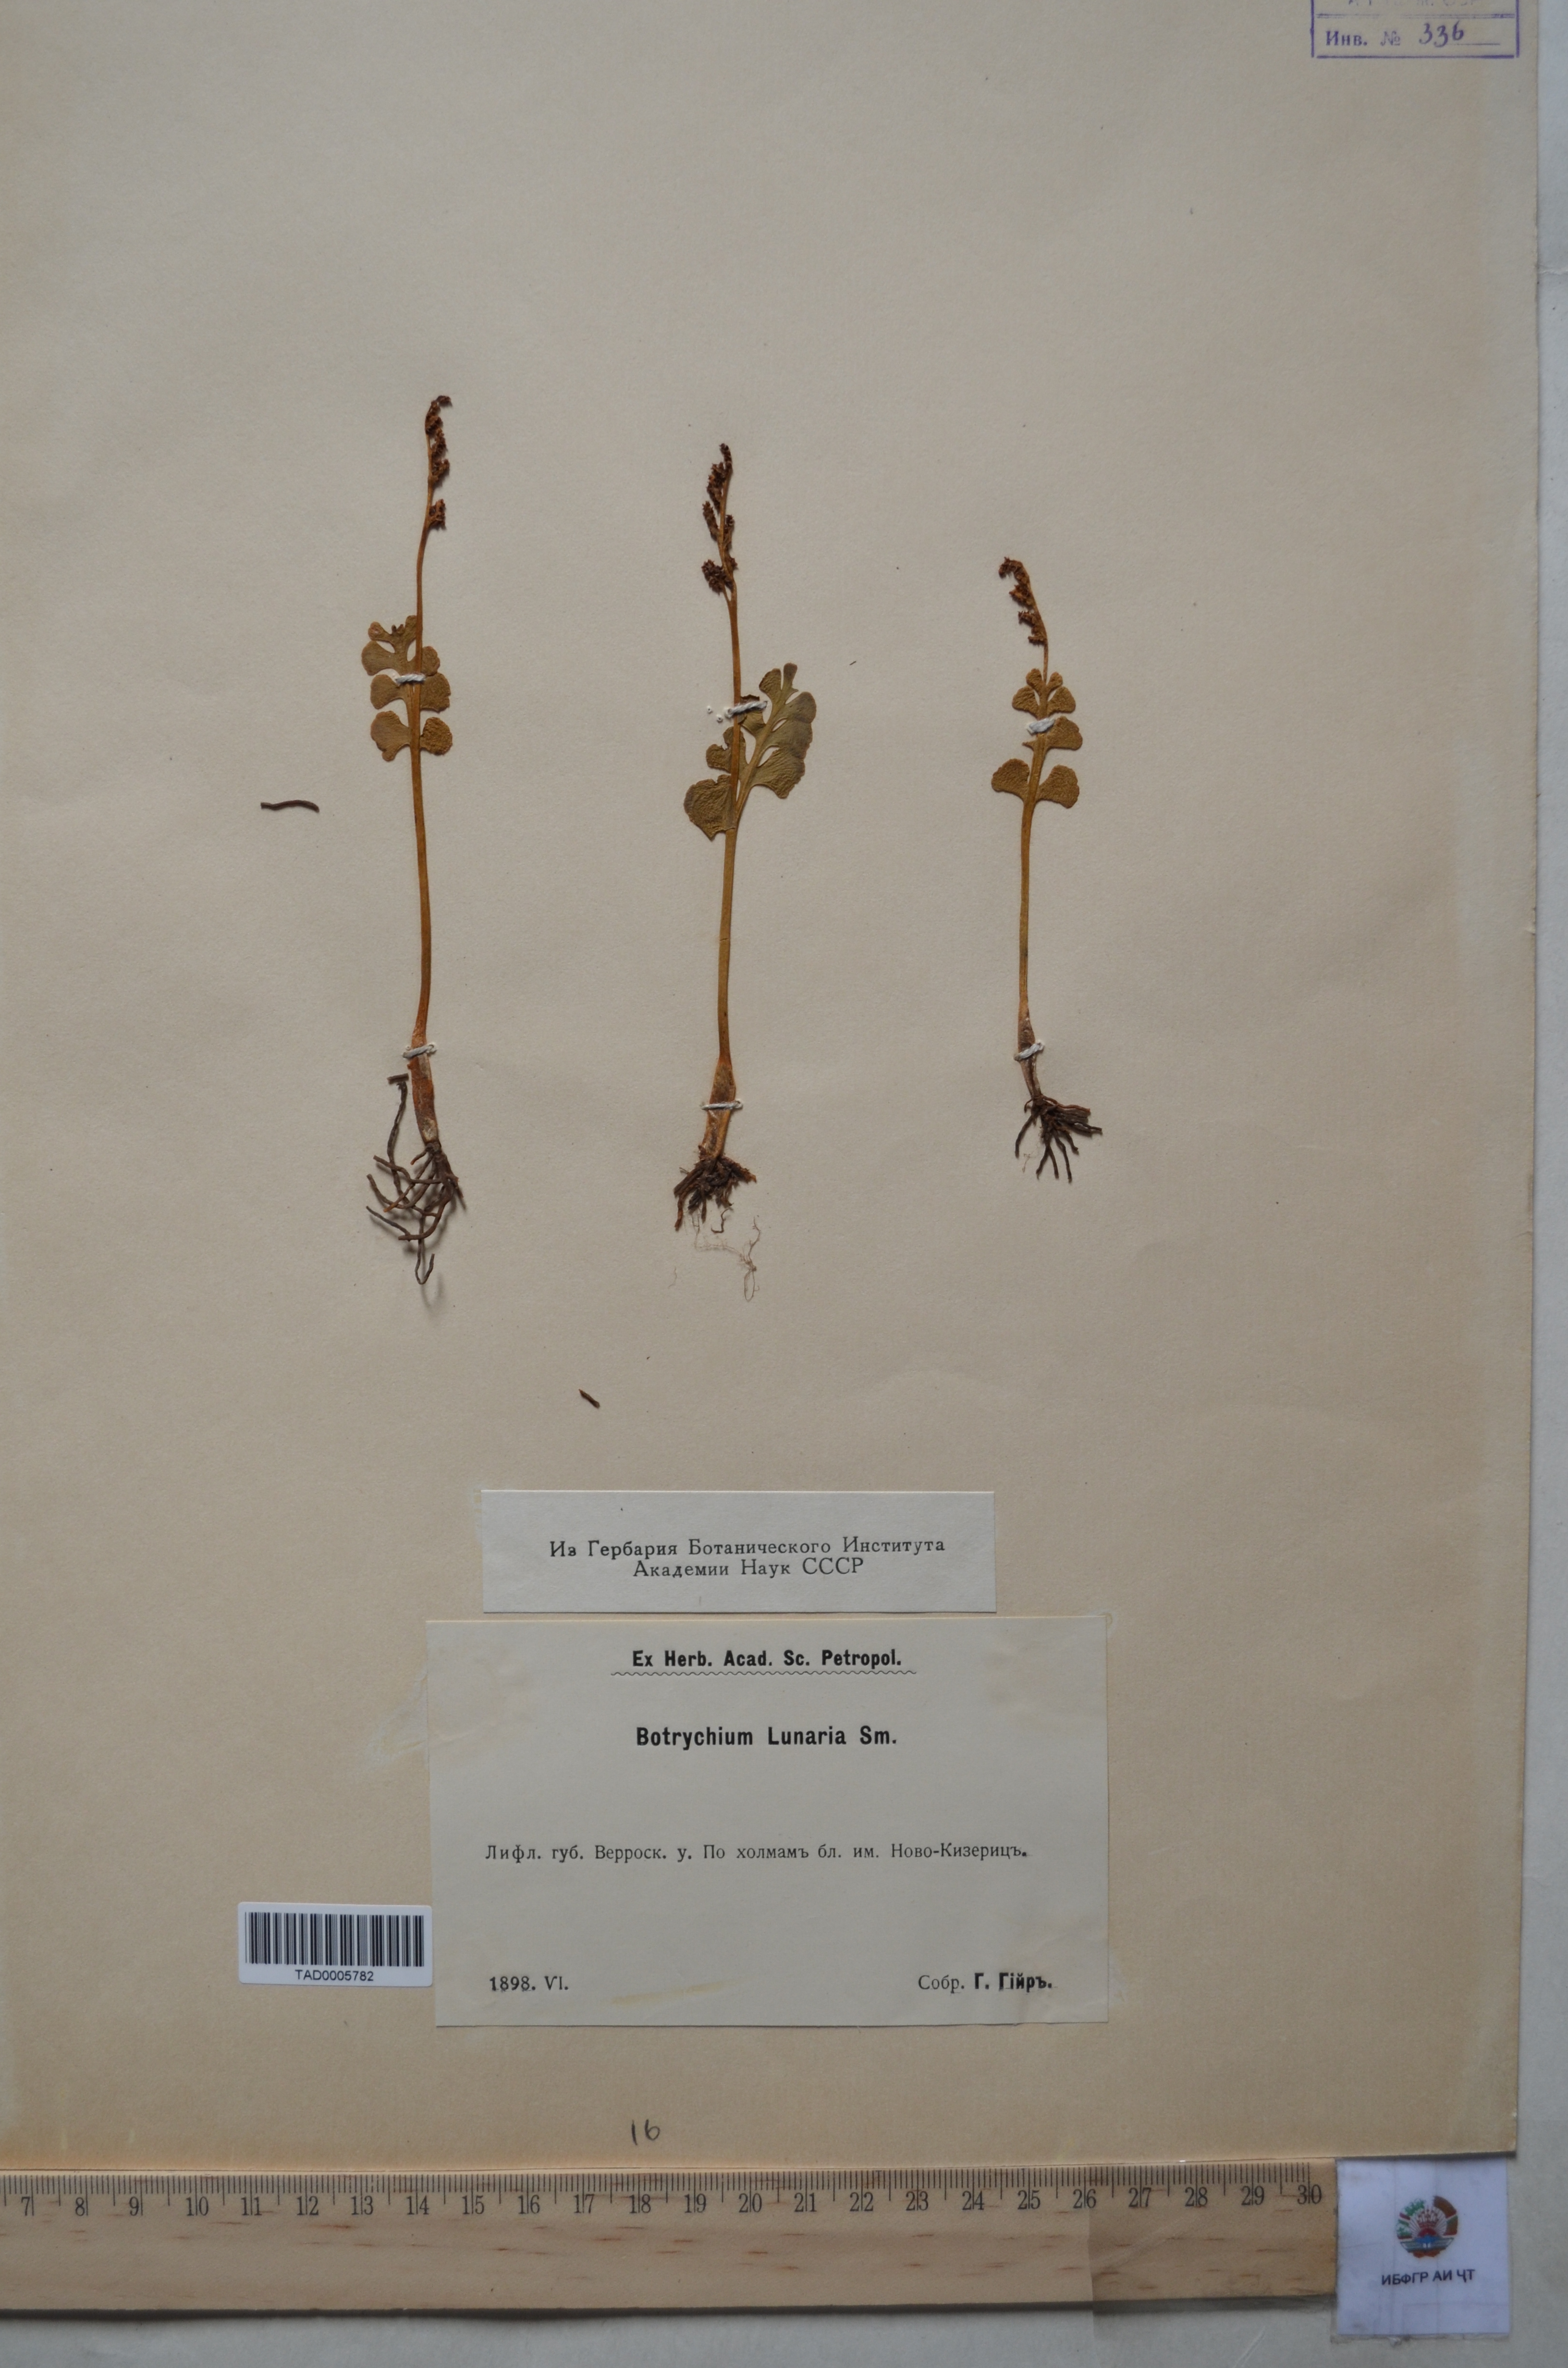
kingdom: Plantae
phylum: Tracheophyta
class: Polypodiopsida
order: Ophioglossales
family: Ophioglossaceae
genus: Botrychium
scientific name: Botrychium lunaria
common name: Moonwort
